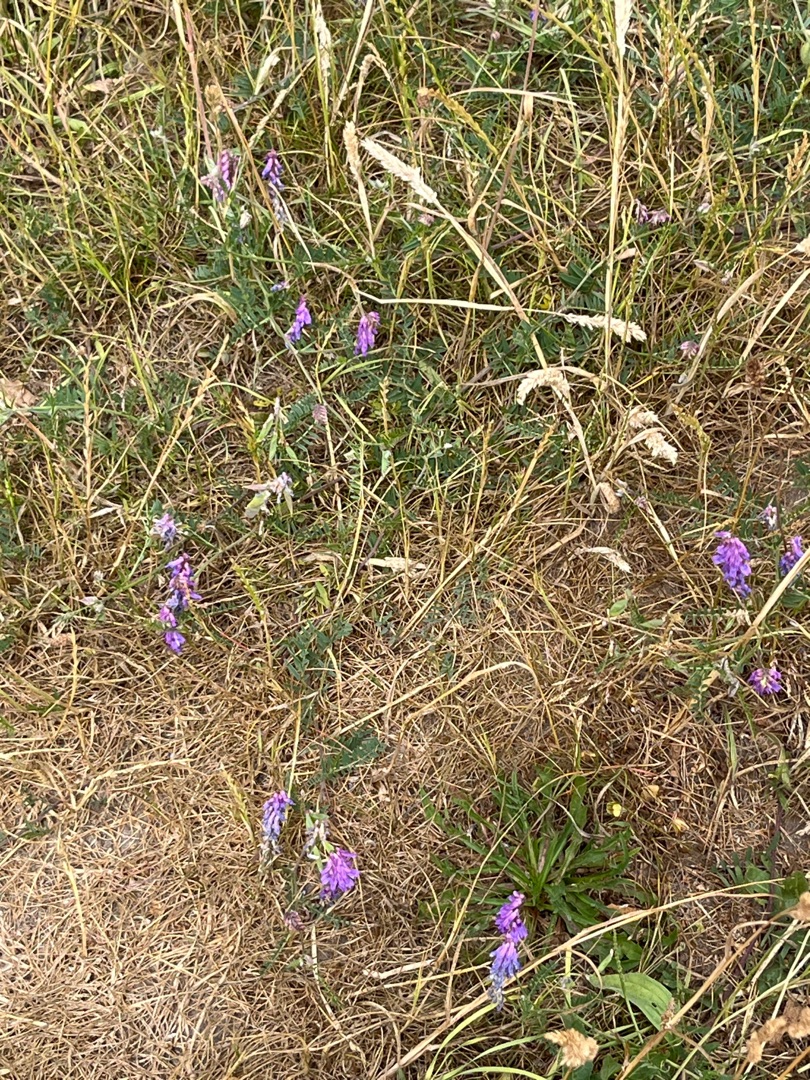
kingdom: Plantae
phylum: Tracheophyta
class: Magnoliopsida
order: Fabales
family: Fabaceae
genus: Vicia
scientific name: Vicia cracca
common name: Muse-vikke
